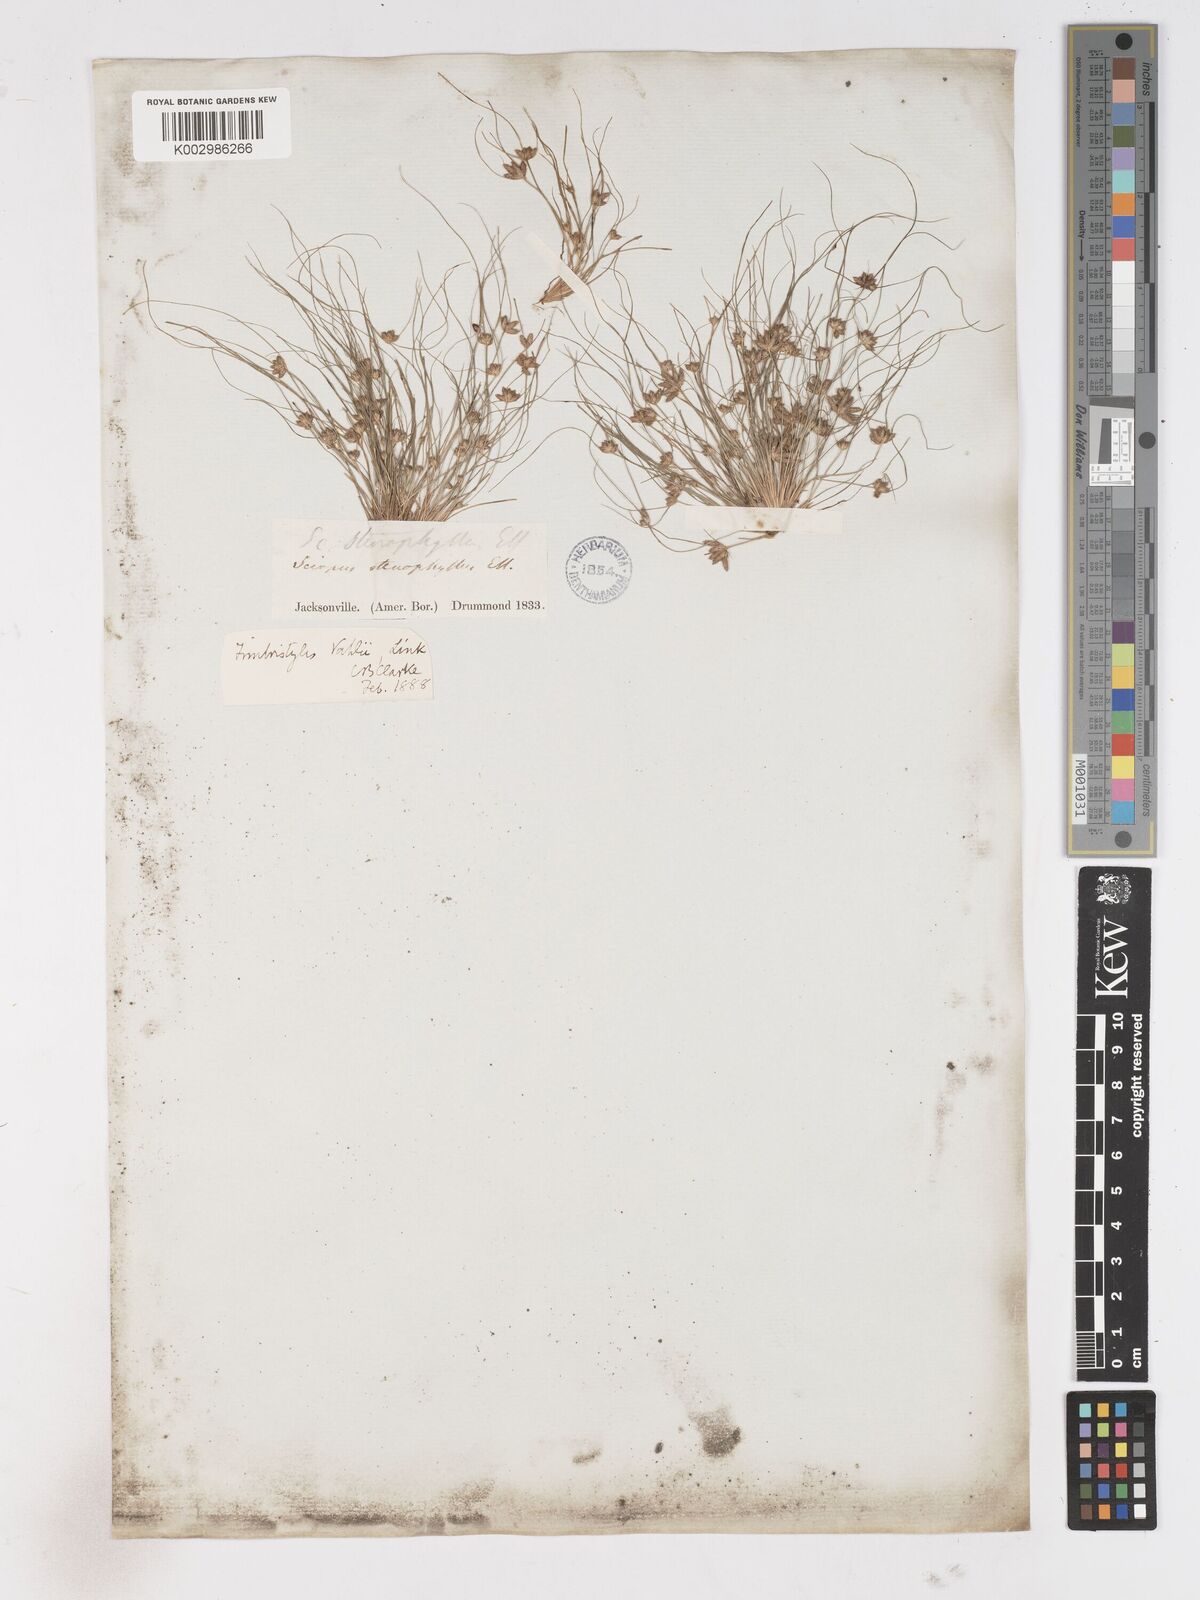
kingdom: Plantae
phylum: Tracheophyta
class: Liliopsida
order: Poales
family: Cyperaceae
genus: Fimbristylis
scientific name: Fimbristylis vahlii
